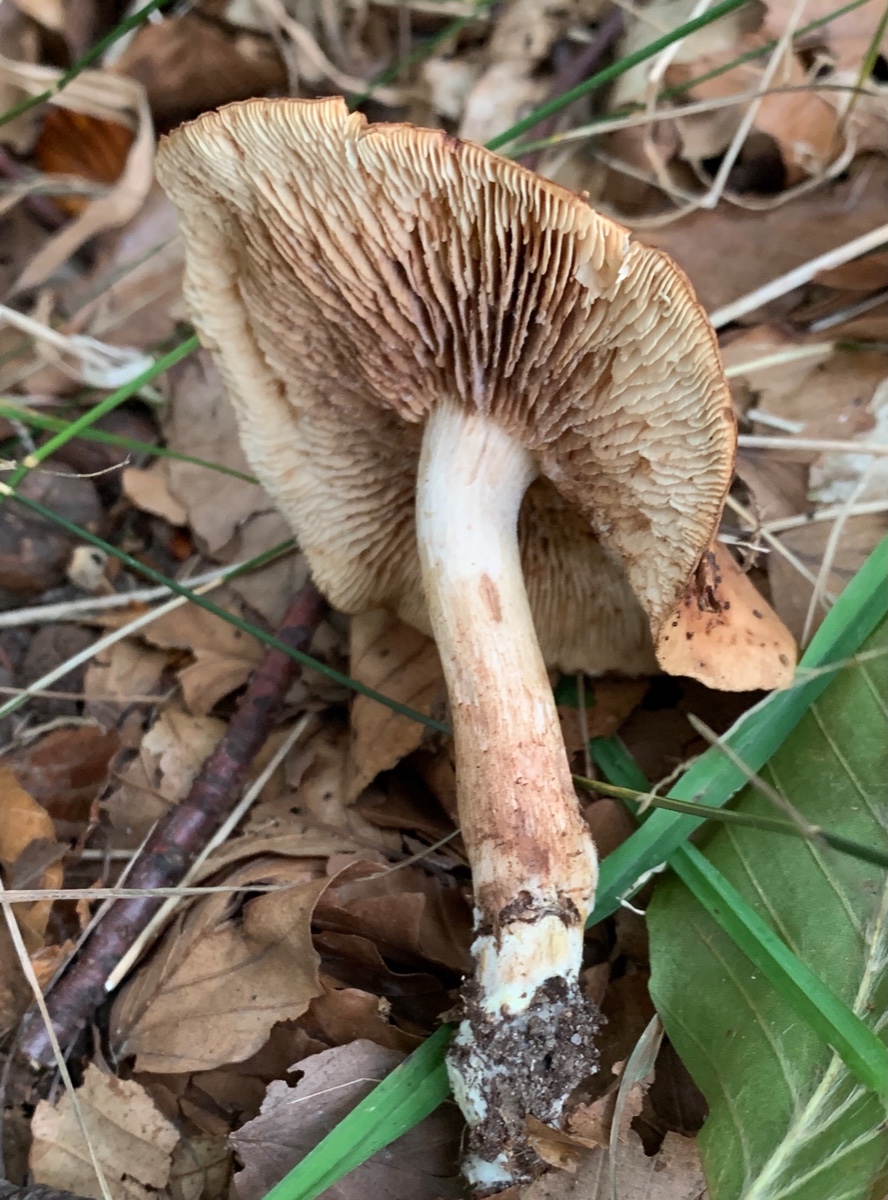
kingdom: Fungi
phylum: Basidiomycota
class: Agaricomycetes
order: Agaricales
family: Tricholomataceae
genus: Tricholoma
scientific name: Tricholoma ustale
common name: sveden ridderhat
